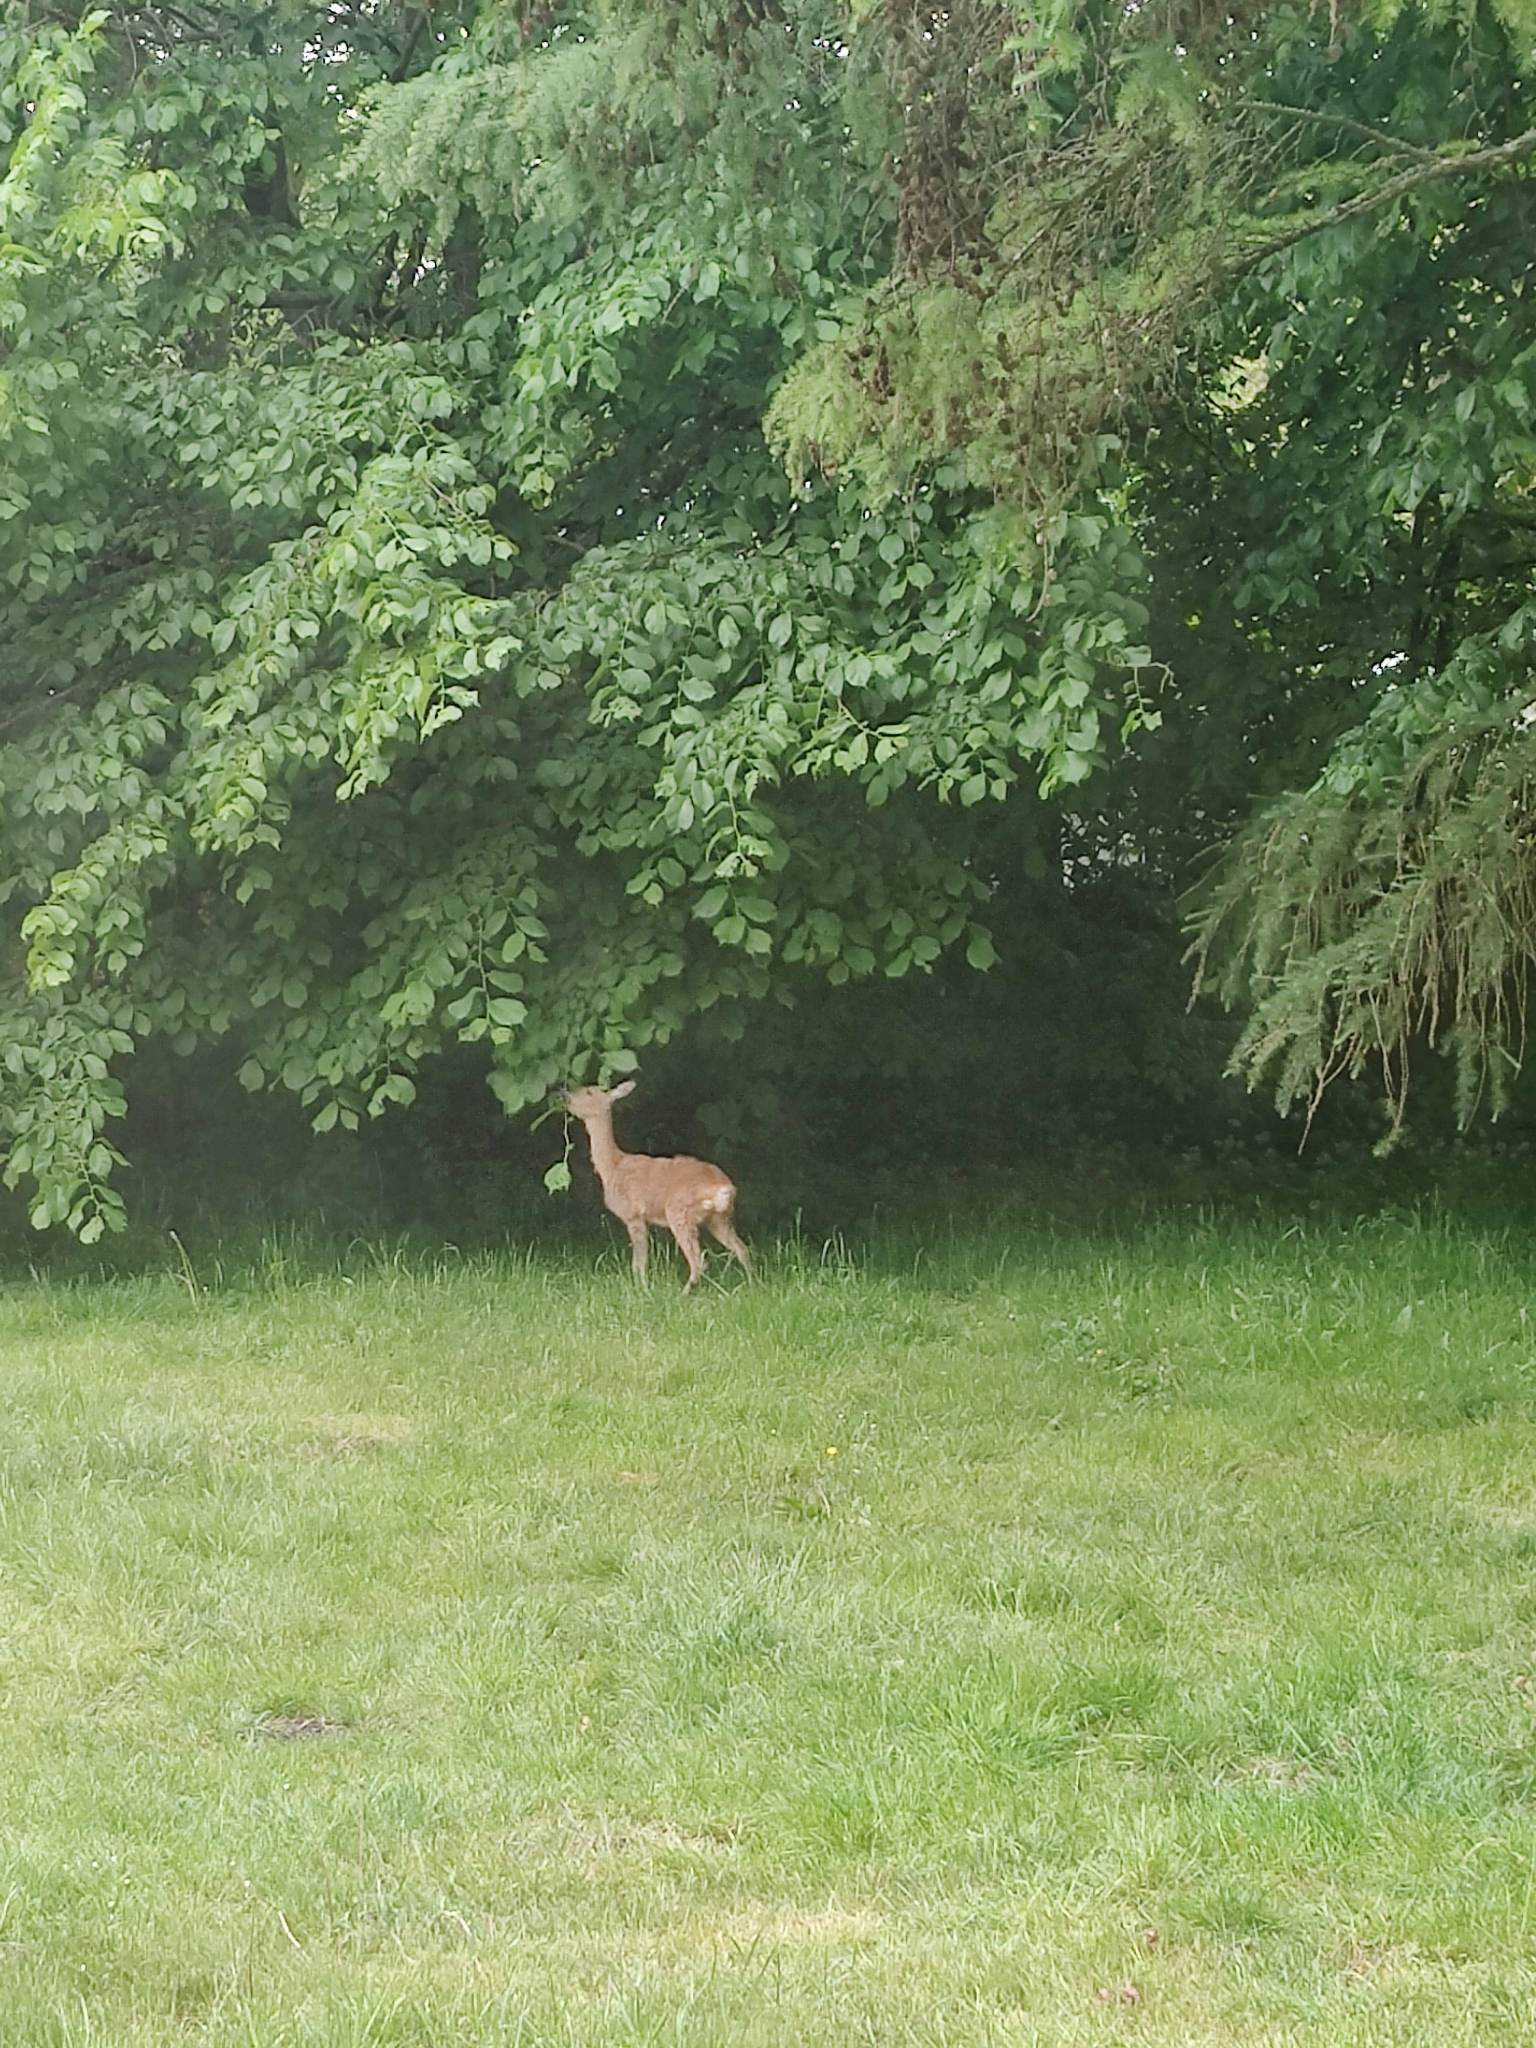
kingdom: Animalia
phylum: Chordata
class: Mammalia
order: Artiodactyla
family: Cervidae
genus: Capreolus
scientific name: Capreolus capreolus
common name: Rådyr
